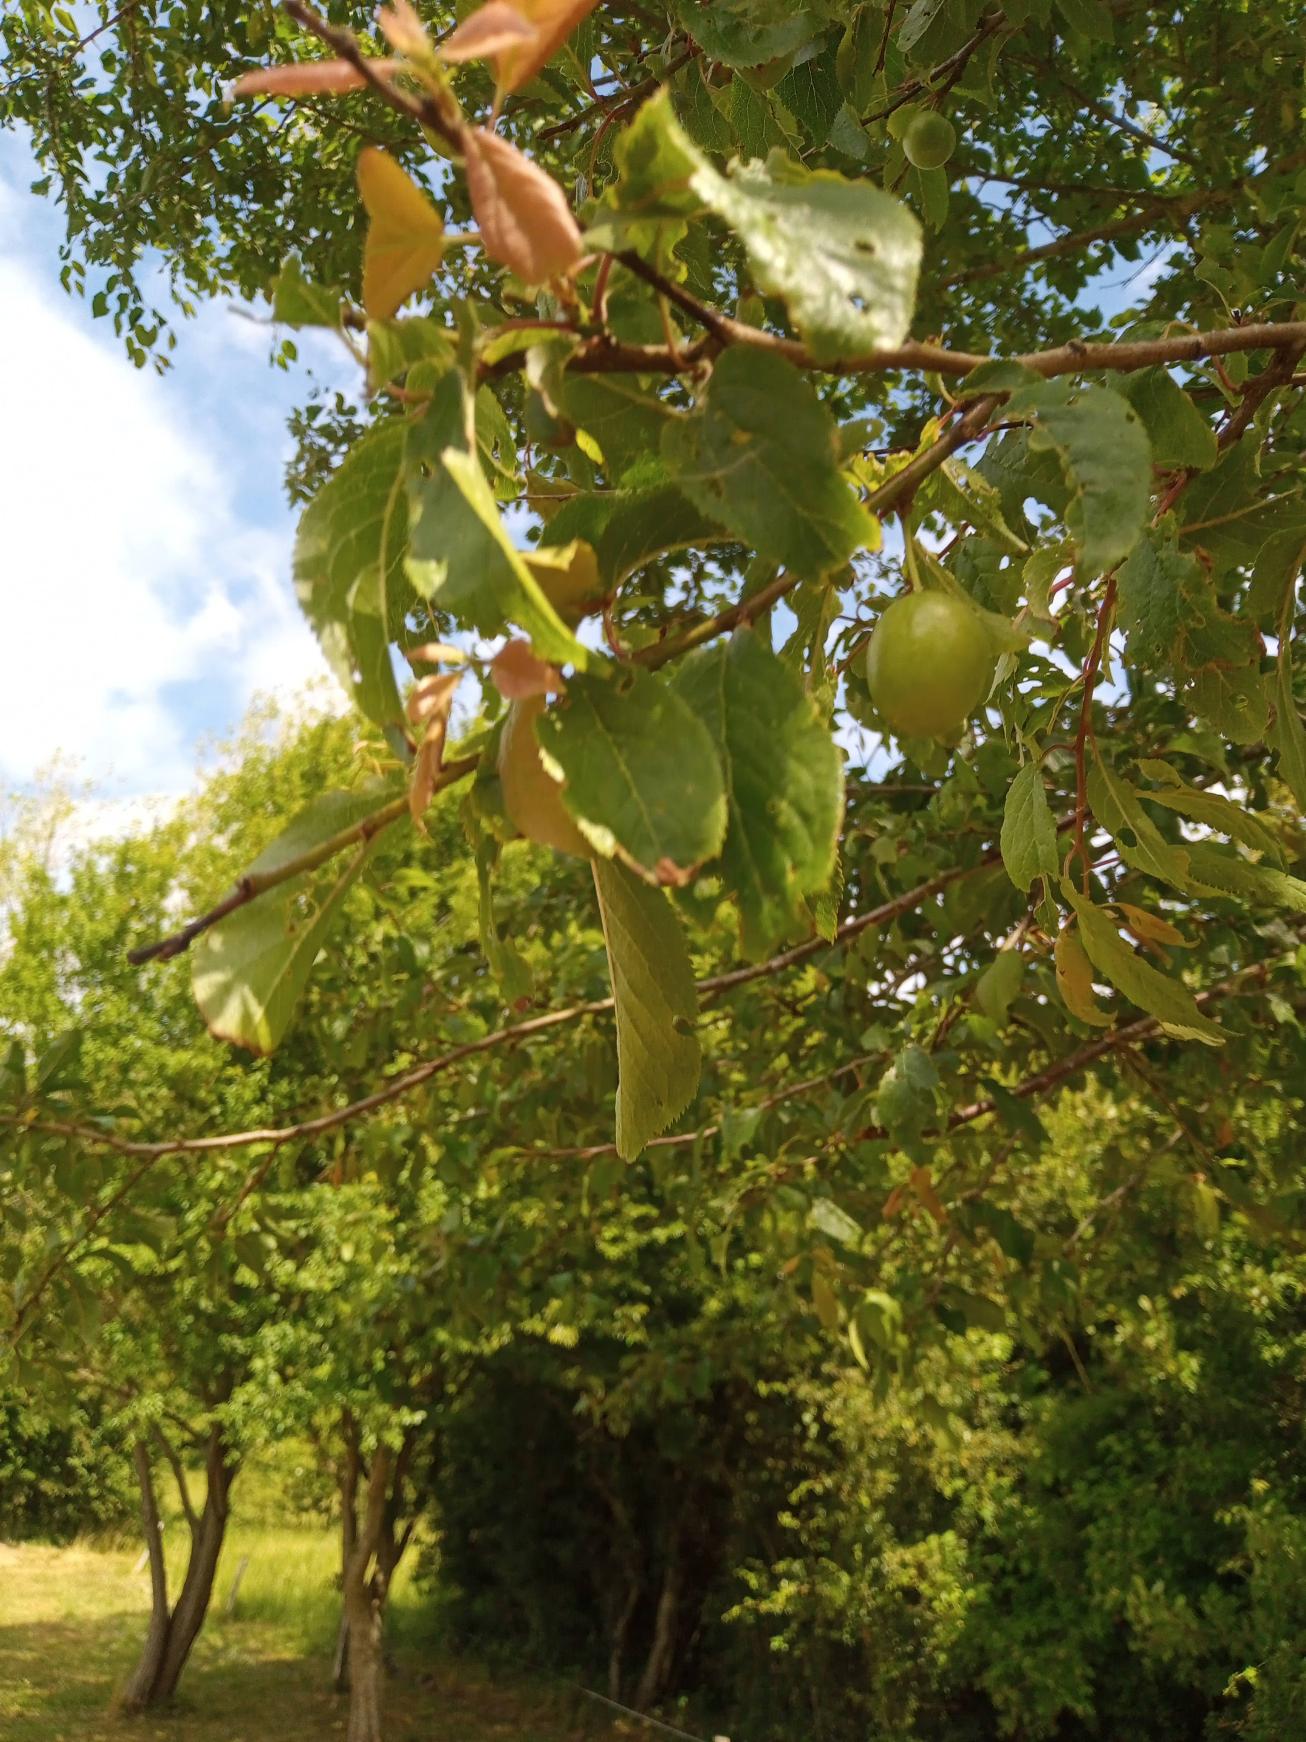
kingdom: Plantae
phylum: Tracheophyta
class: Magnoliopsida
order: Rosales
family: Rosaceae
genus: Prunus
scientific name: Prunus cerasifera
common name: Mirabel
